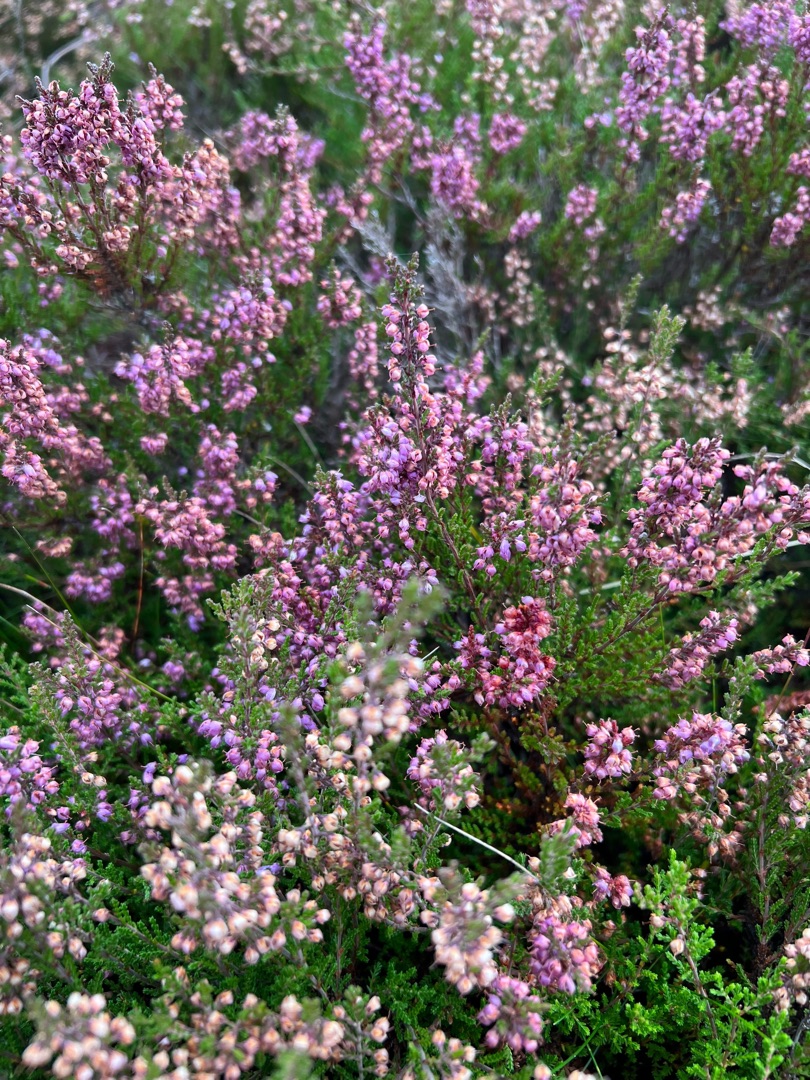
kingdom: Plantae
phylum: Tracheophyta
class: Magnoliopsida
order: Ericales
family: Ericaceae
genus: Calluna
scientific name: Calluna vulgaris
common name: Hedelyng
